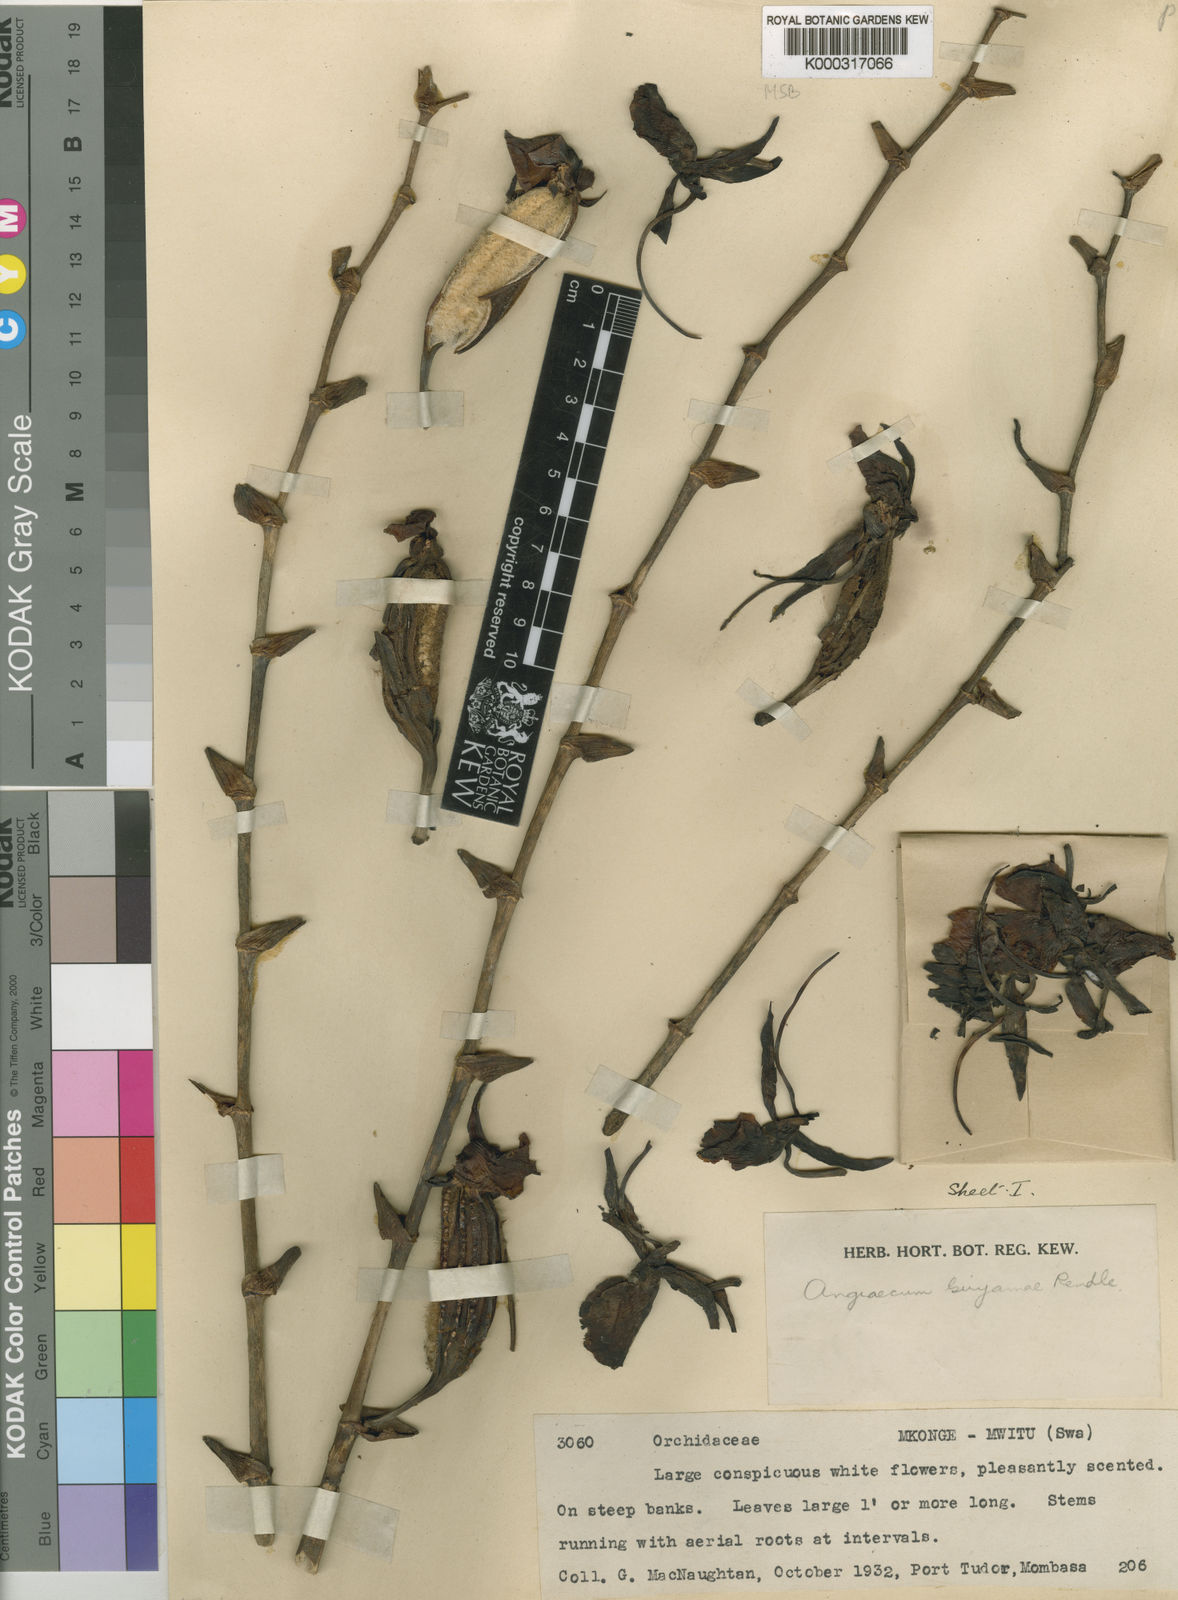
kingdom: Plantae
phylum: Tracheophyta
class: Liliopsida
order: Asparagales
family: Orchidaceae
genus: Angraecum
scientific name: Angraecum eburneum
